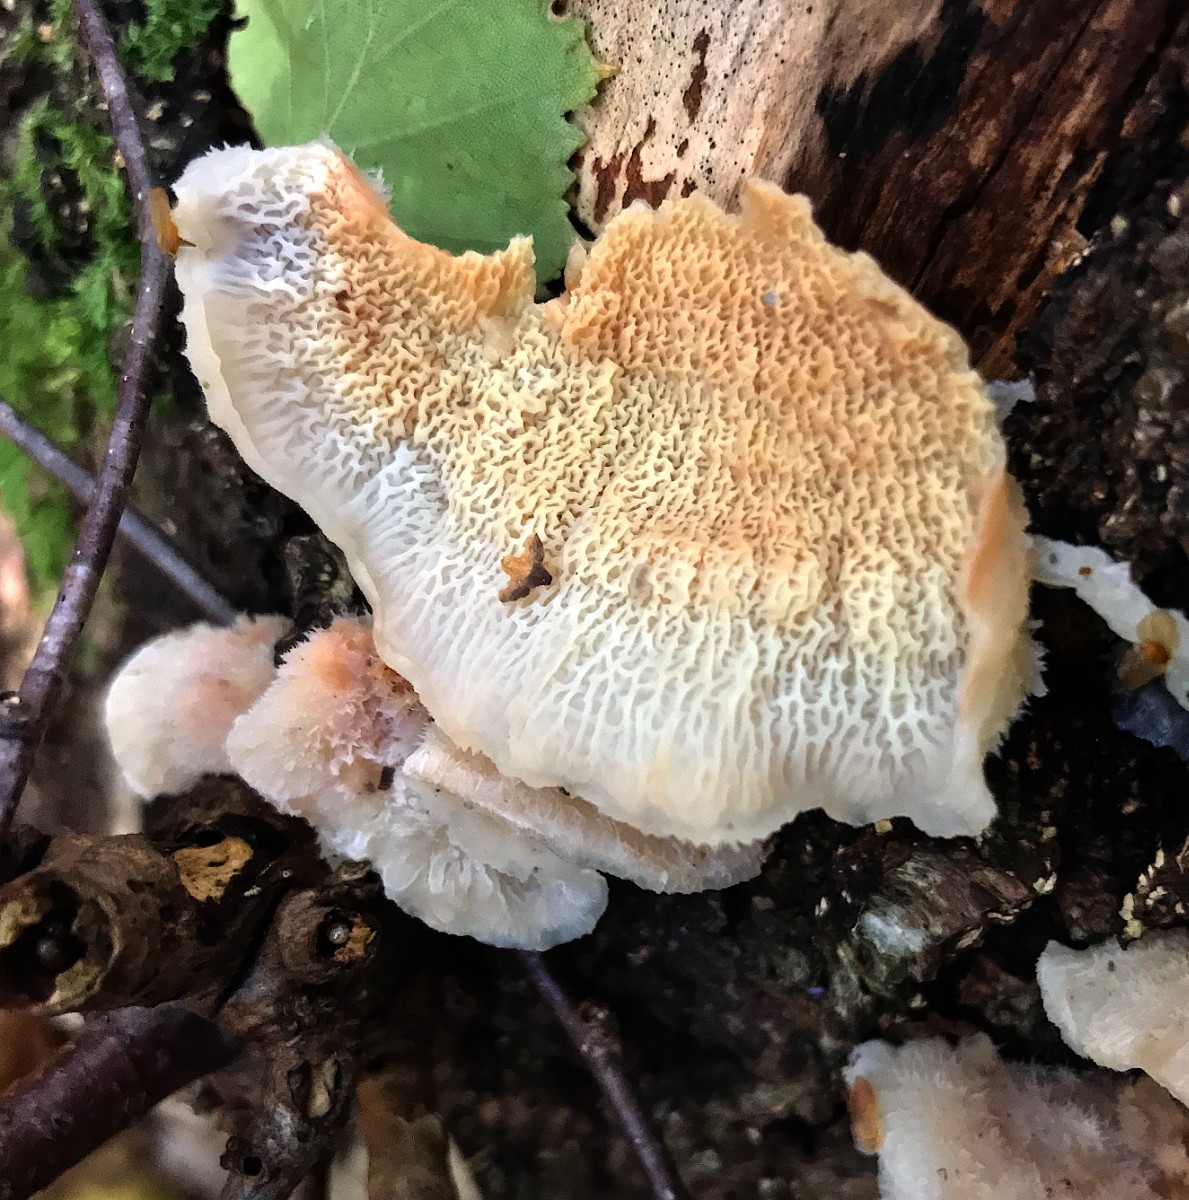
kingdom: Fungi
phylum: Basidiomycota
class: Agaricomycetes
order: Polyporales
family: Meruliaceae
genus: Phlebia
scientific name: Phlebia tremellosa
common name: bævrende åresvamp
